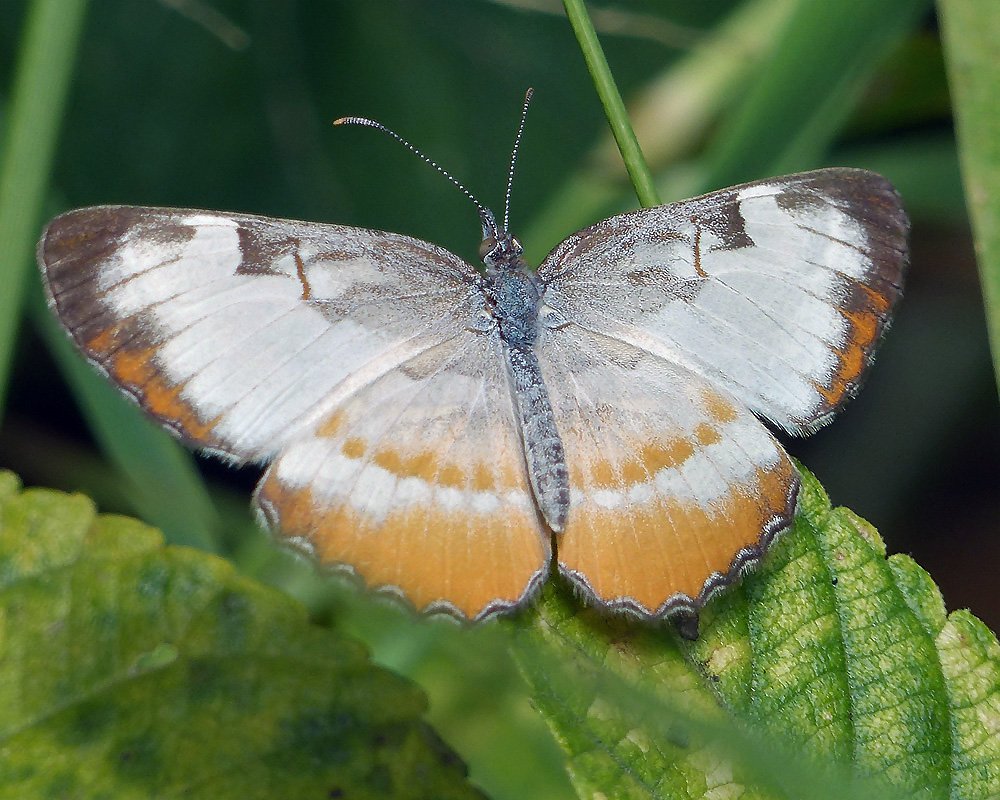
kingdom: Animalia
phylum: Arthropoda
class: Insecta
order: Lepidoptera
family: Nymphalidae
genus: Mestra
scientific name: Mestra amymone
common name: Common Mestra
